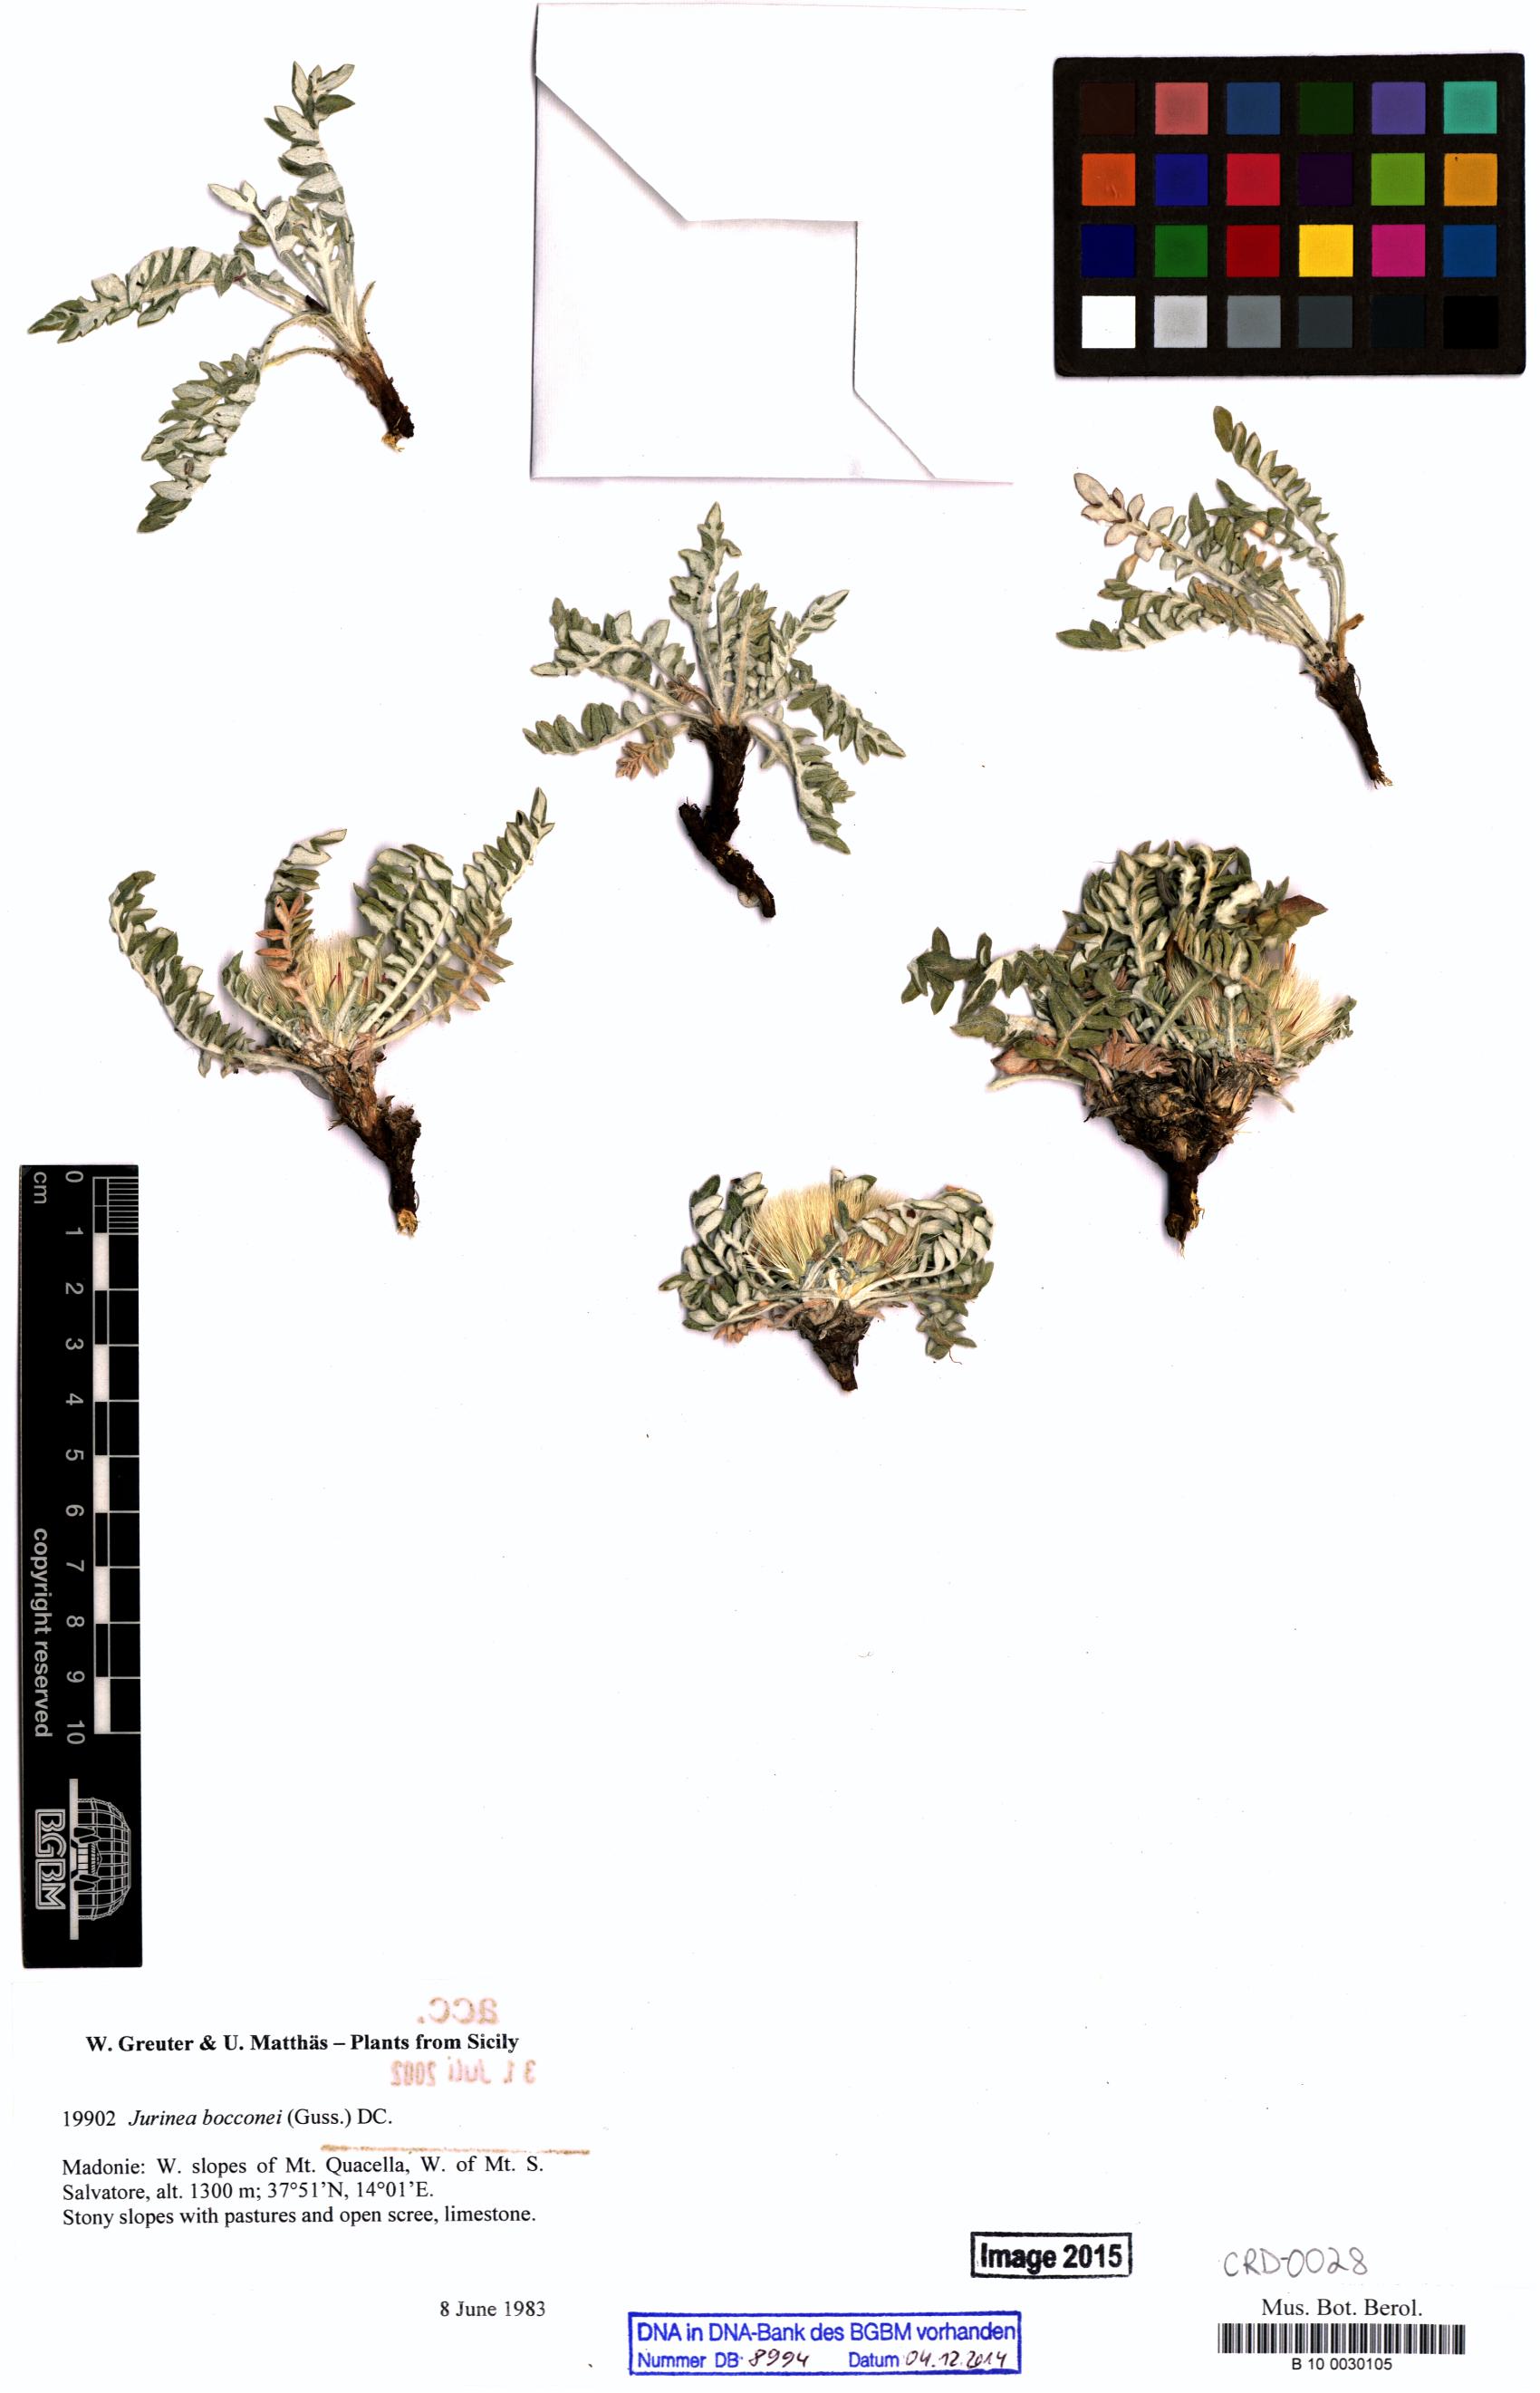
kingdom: Plantae
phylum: Tracheophyta
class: Magnoliopsida
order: Asterales
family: Asteraceae
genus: Jurinea
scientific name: Jurinea bocconei
